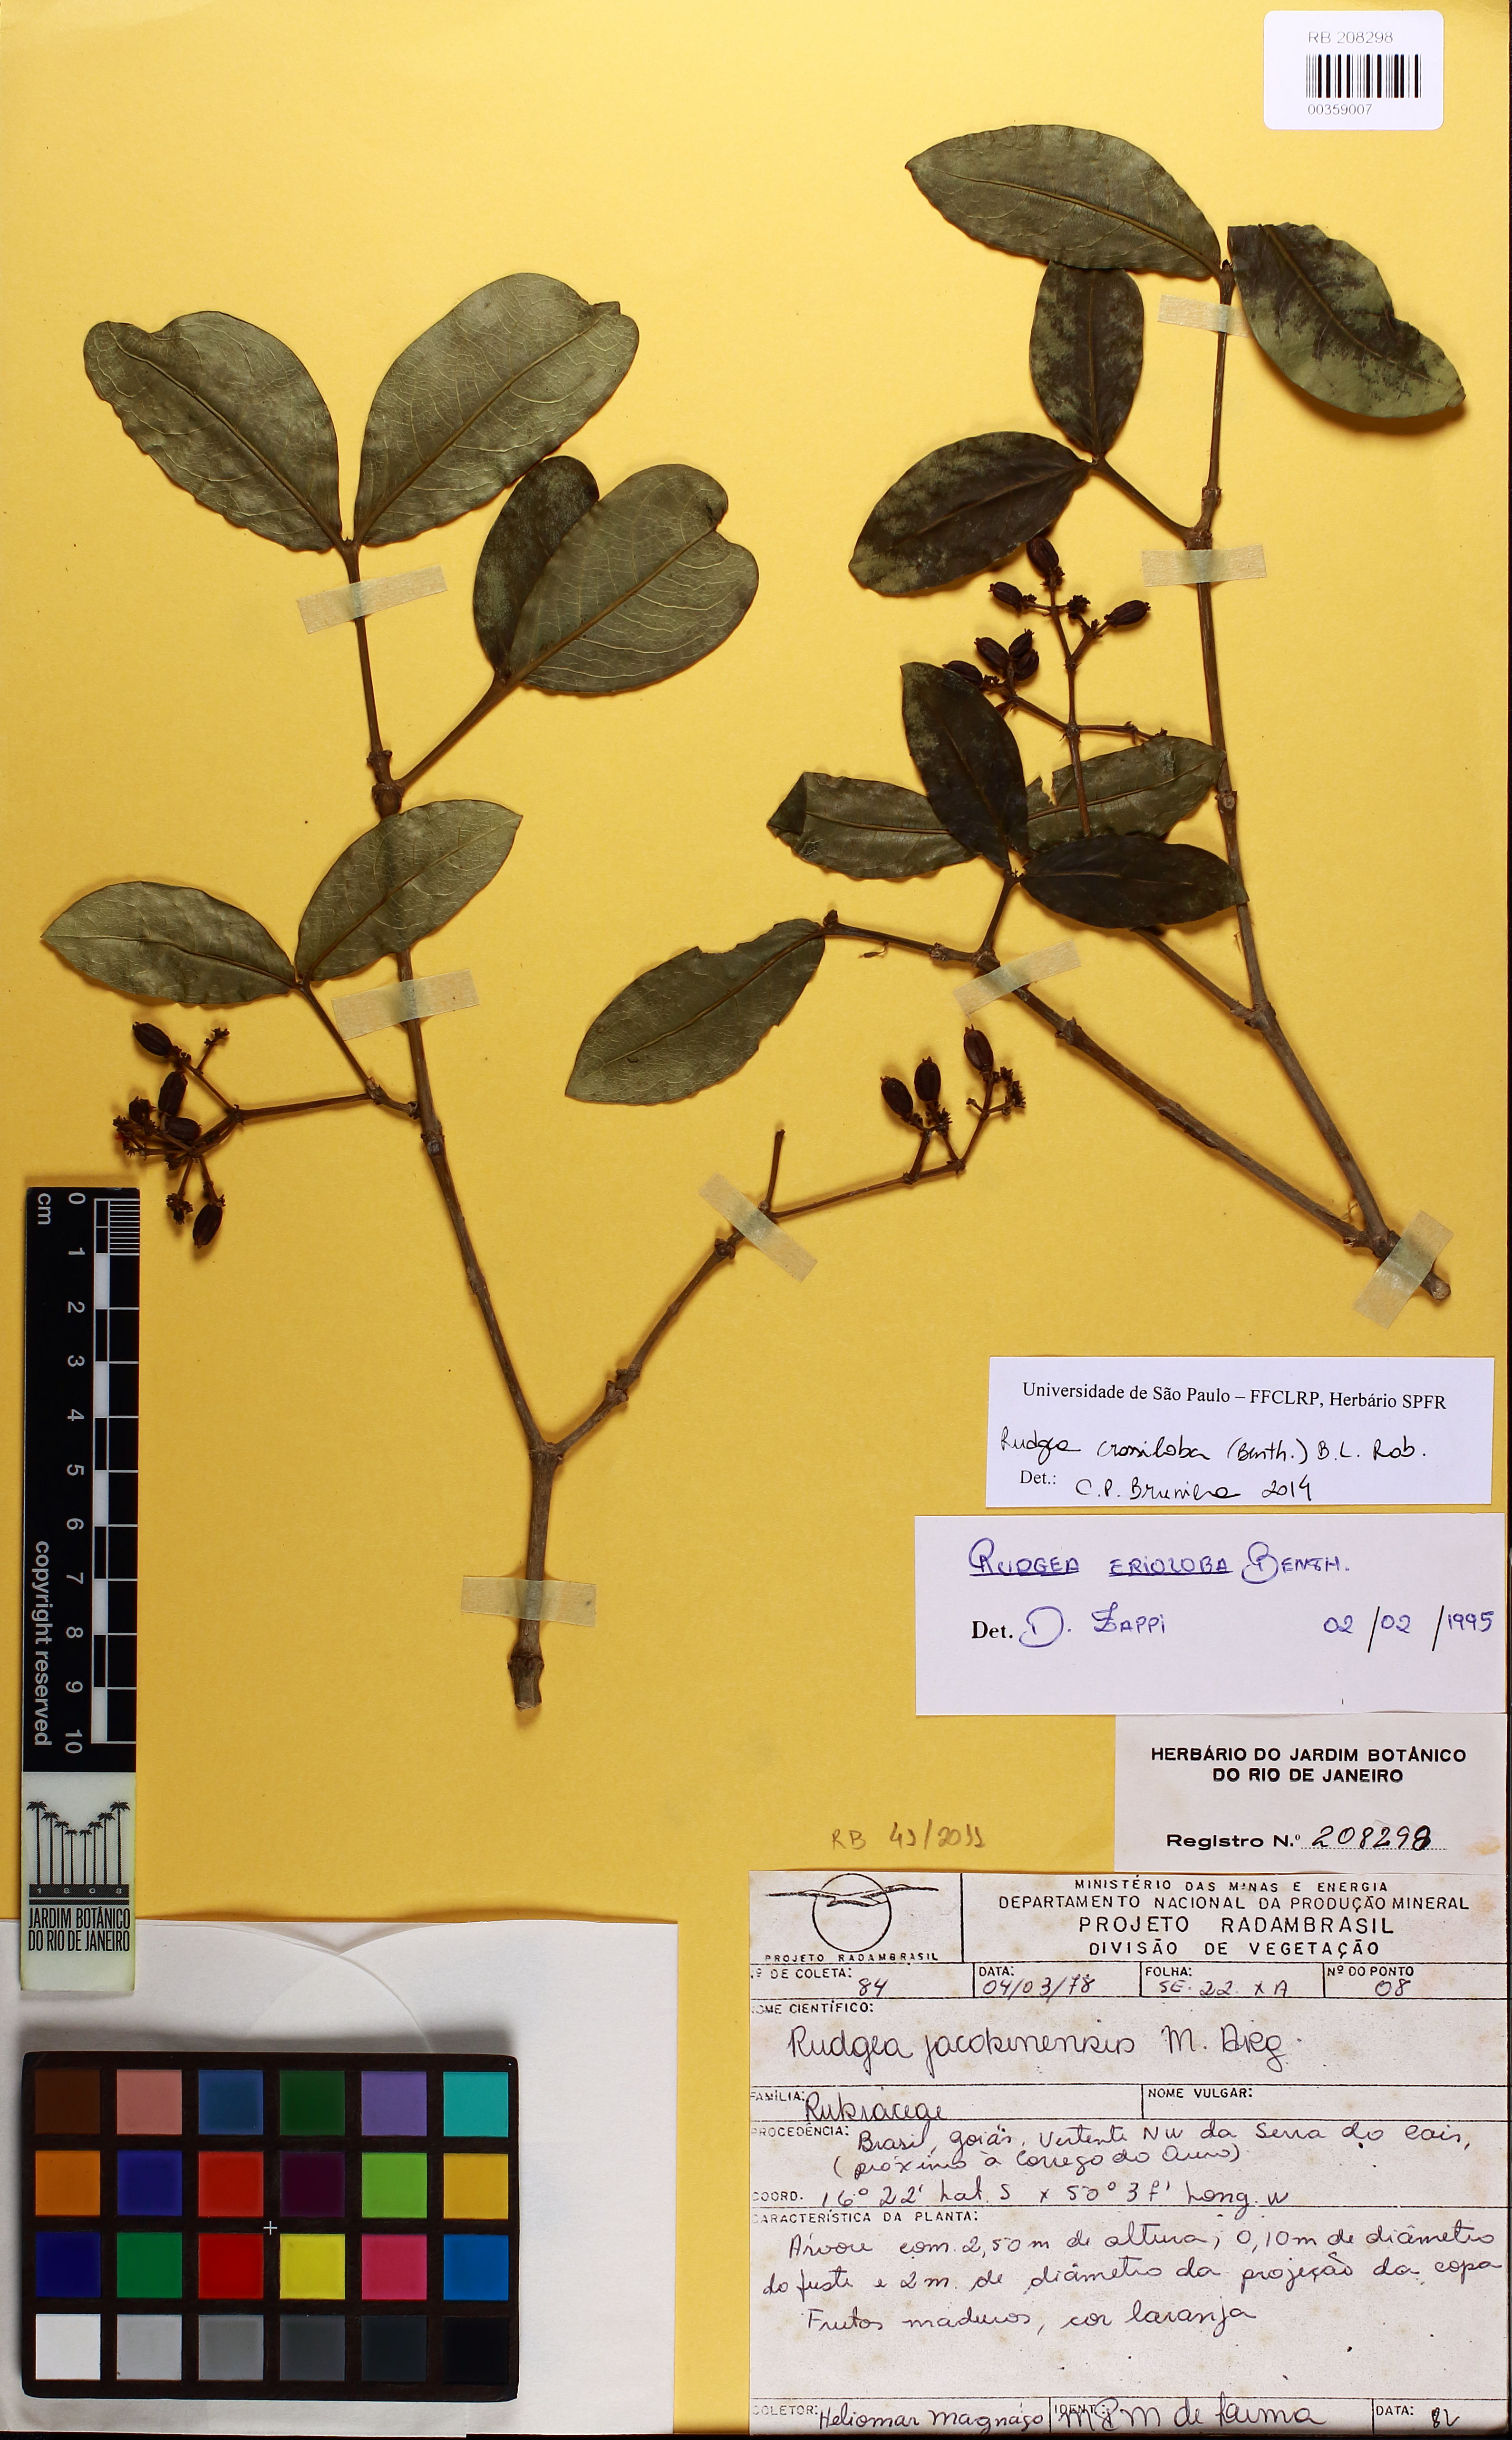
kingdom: Plantae
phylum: Tracheophyta
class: Magnoliopsida
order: Gentianales
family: Rubiaceae
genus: Rudgea
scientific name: Rudgea crassiloba
